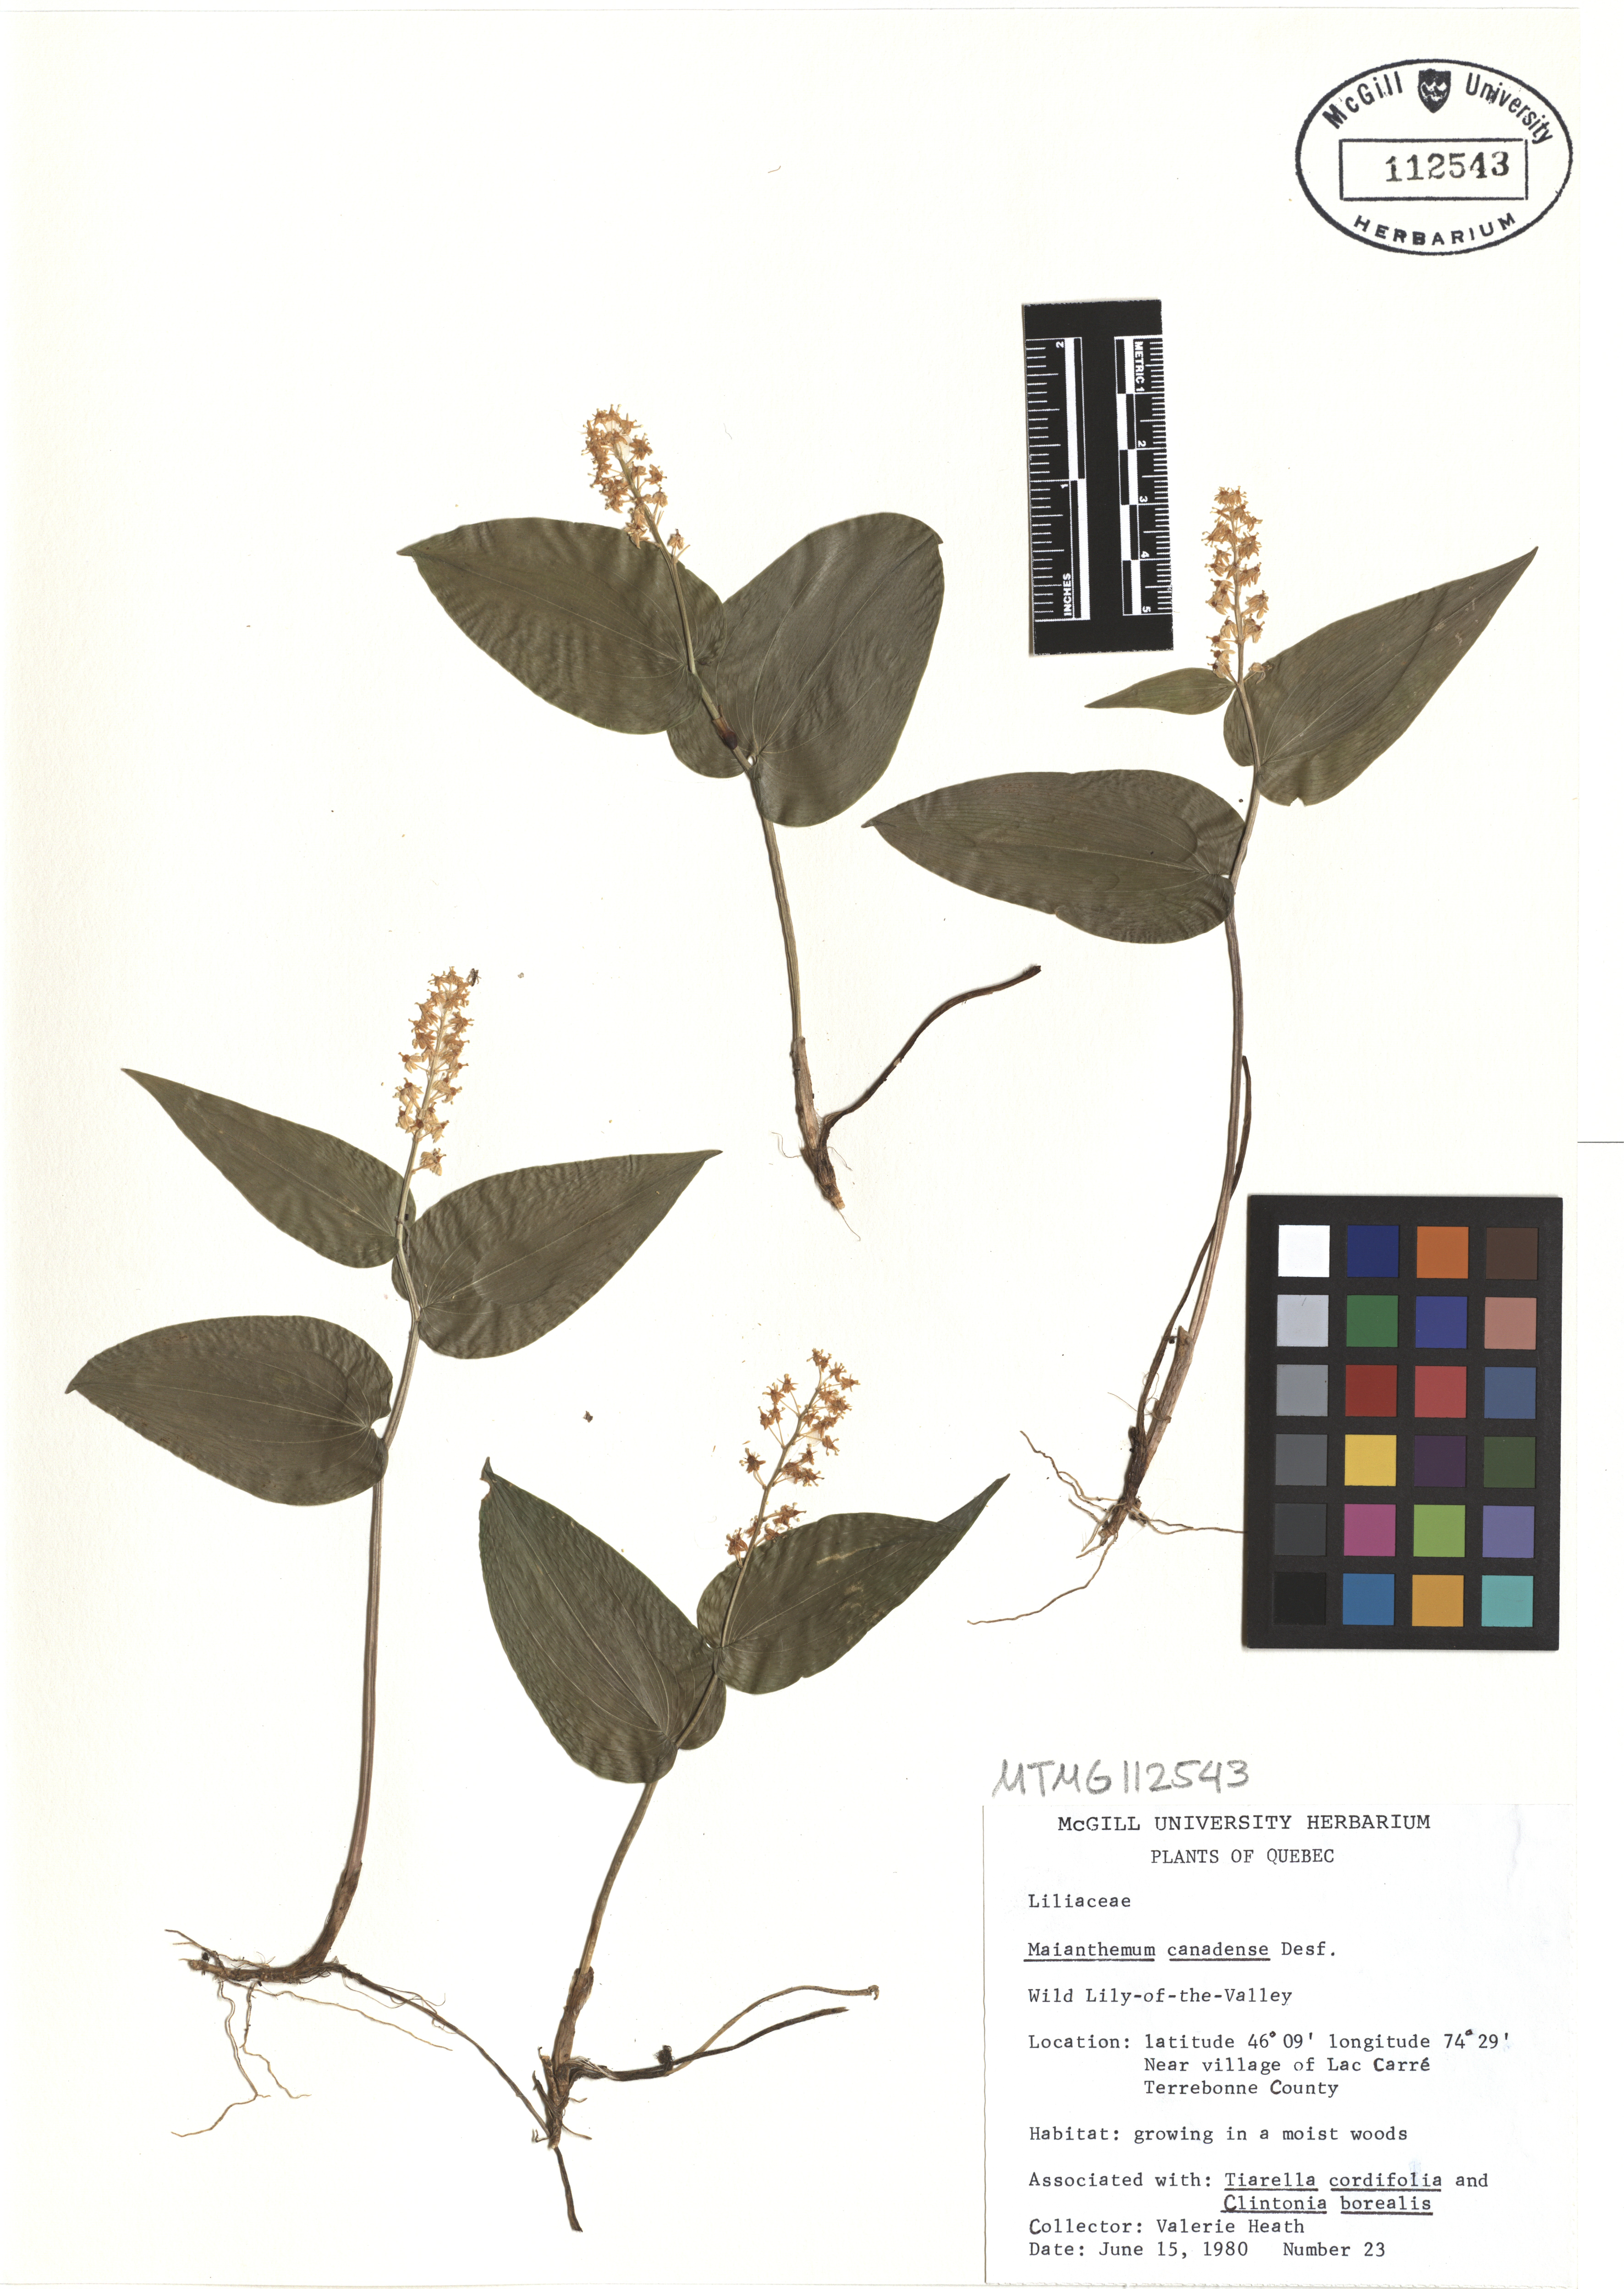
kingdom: Plantae
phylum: Tracheophyta
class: Liliopsida
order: Asparagales
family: Asparagaceae
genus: Maianthemum
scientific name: Maianthemum canadense
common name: False lily-of-the-valley
